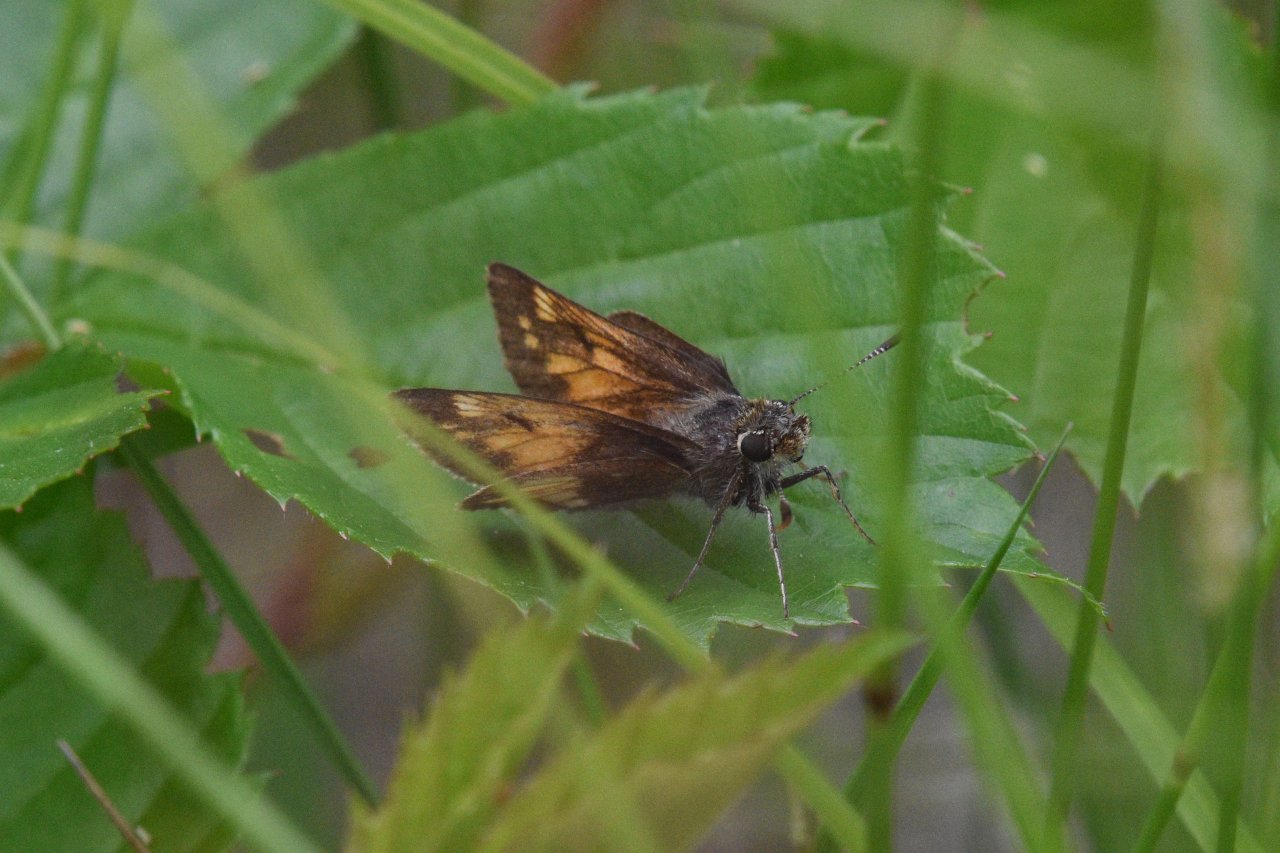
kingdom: Animalia
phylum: Arthropoda
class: Insecta
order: Lepidoptera
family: Hesperiidae
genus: Lon
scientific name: Lon hobomok
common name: Hobomok Skipper
